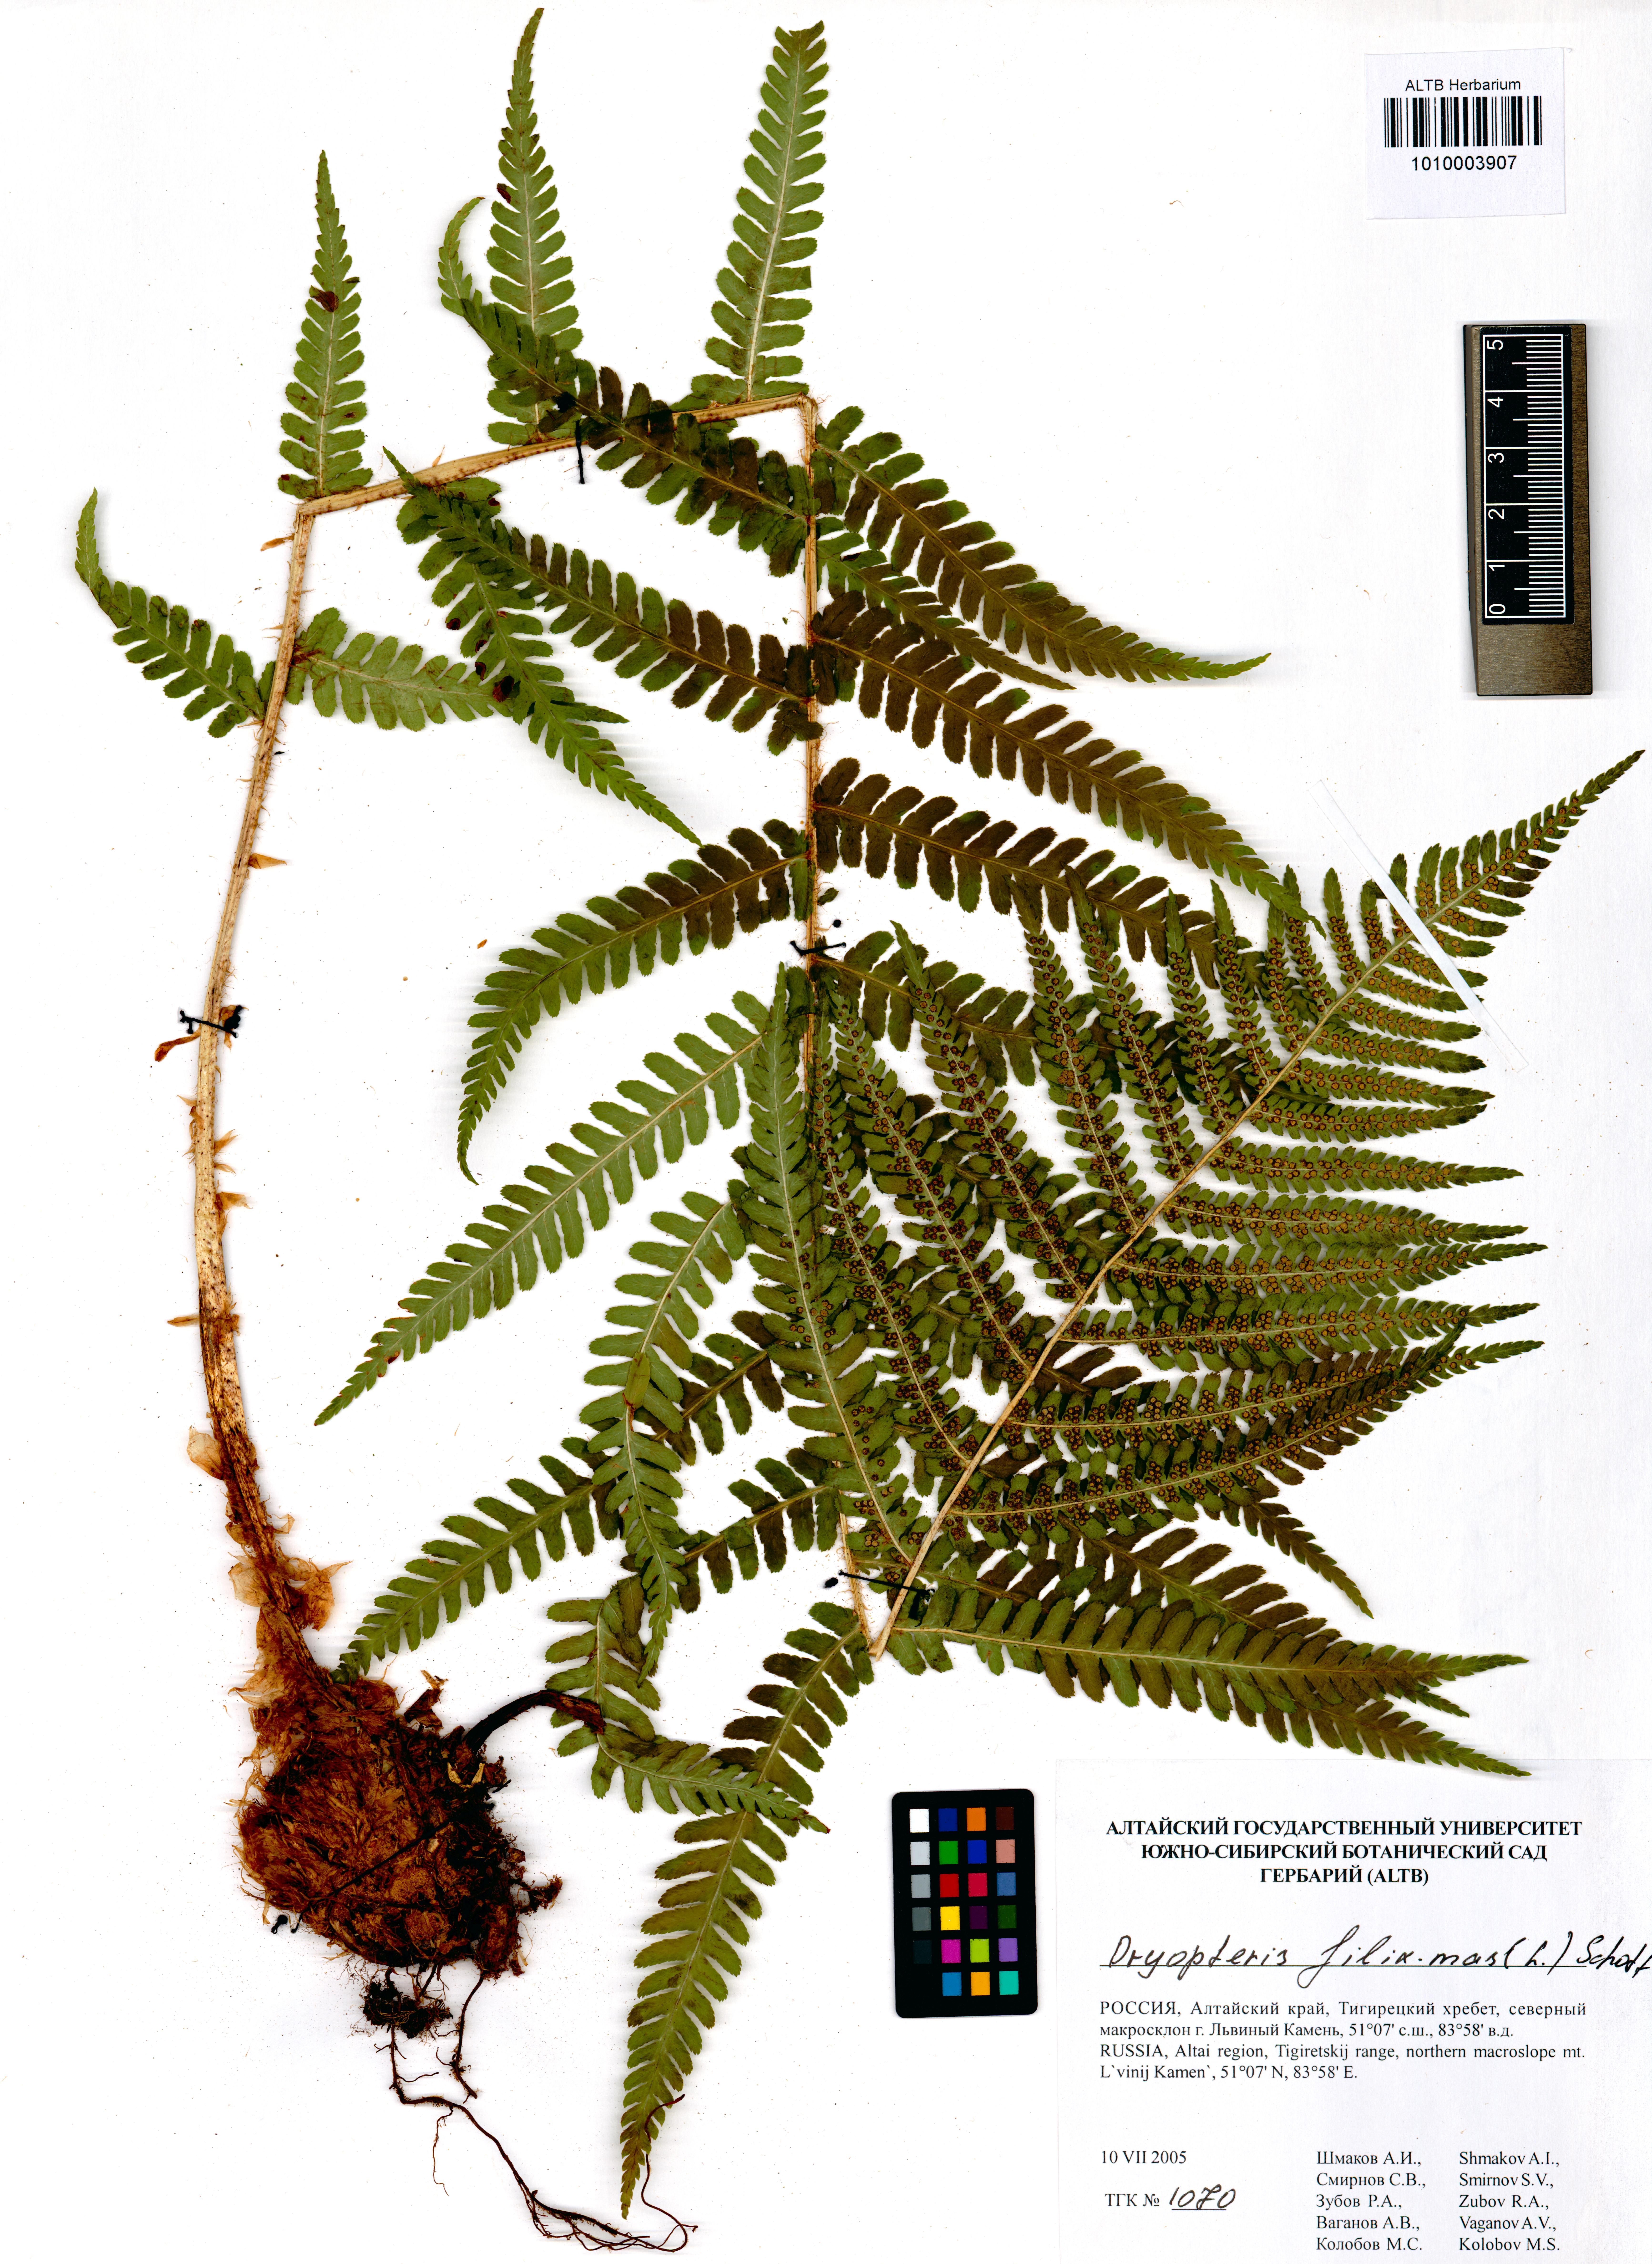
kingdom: Plantae
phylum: Tracheophyta
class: Polypodiopsida
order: Polypodiales
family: Dryopteridaceae
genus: Dryopteris
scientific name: Dryopteris filix-mas
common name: Male fern
